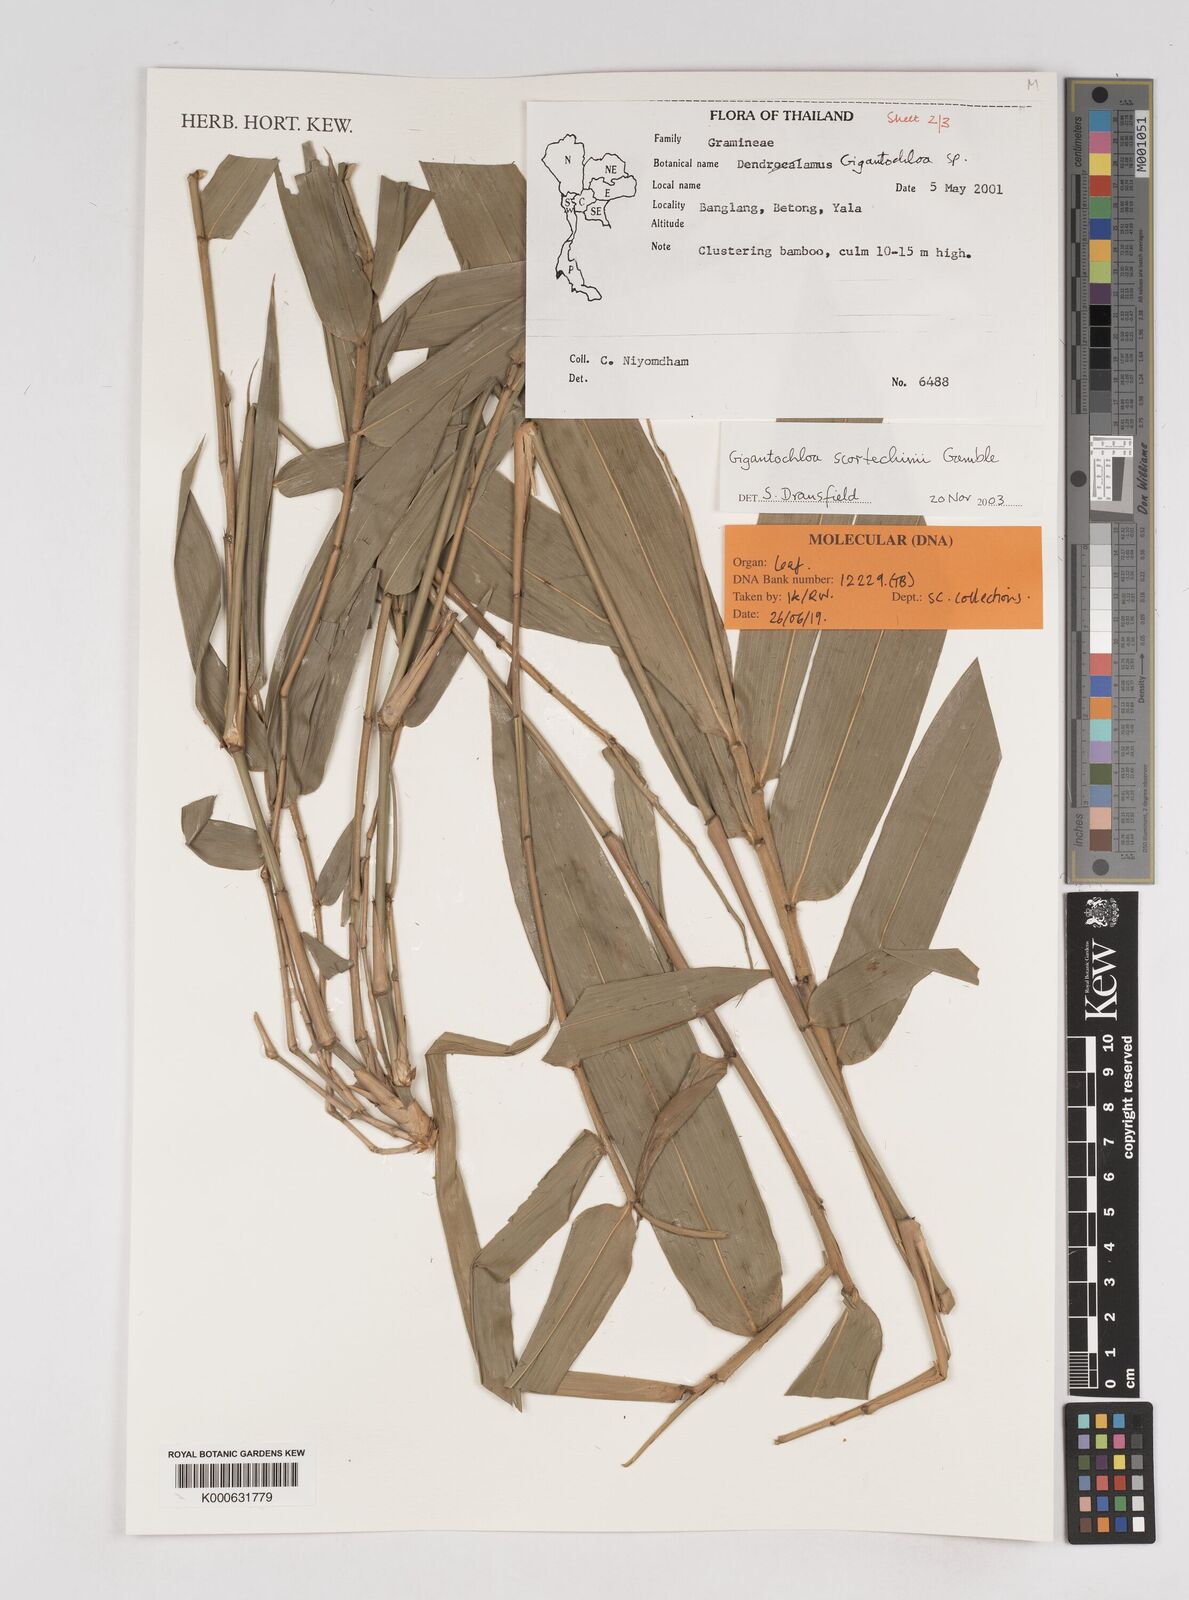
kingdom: Plantae
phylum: Tracheophyta
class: Liliopsida
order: Poales
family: Poaceae
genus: Gigantochloa
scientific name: Gigantochloa scortechinii
